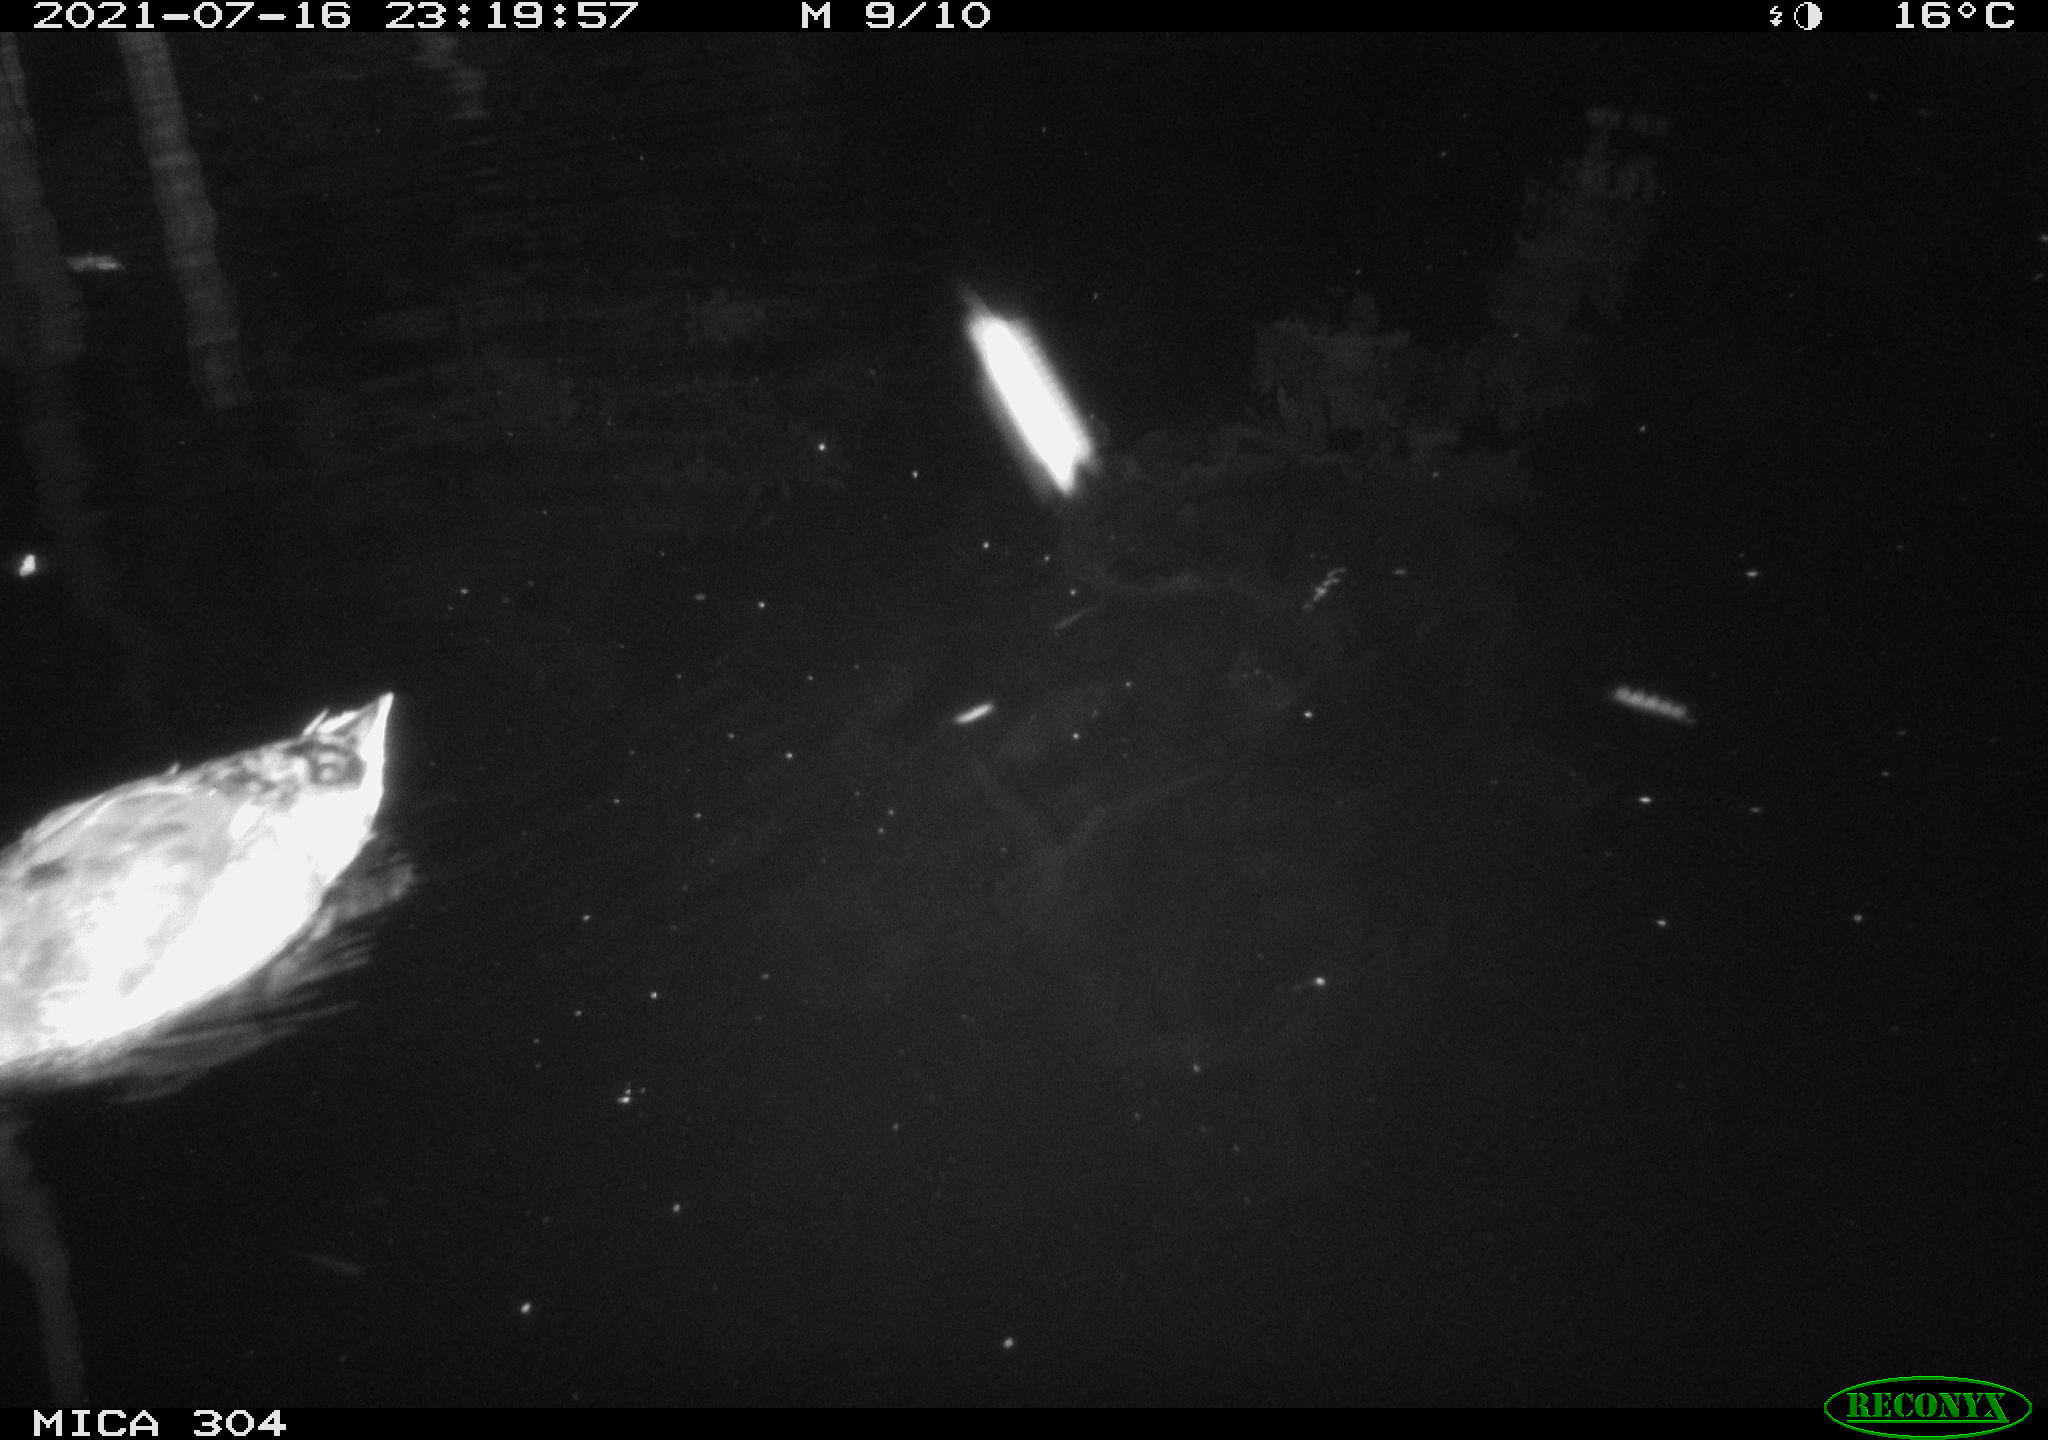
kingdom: Animalia
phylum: Chordata
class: Aves
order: Anseriformes
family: Anatidae
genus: Mareca
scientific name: Mareca strepera
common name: Gadwall
